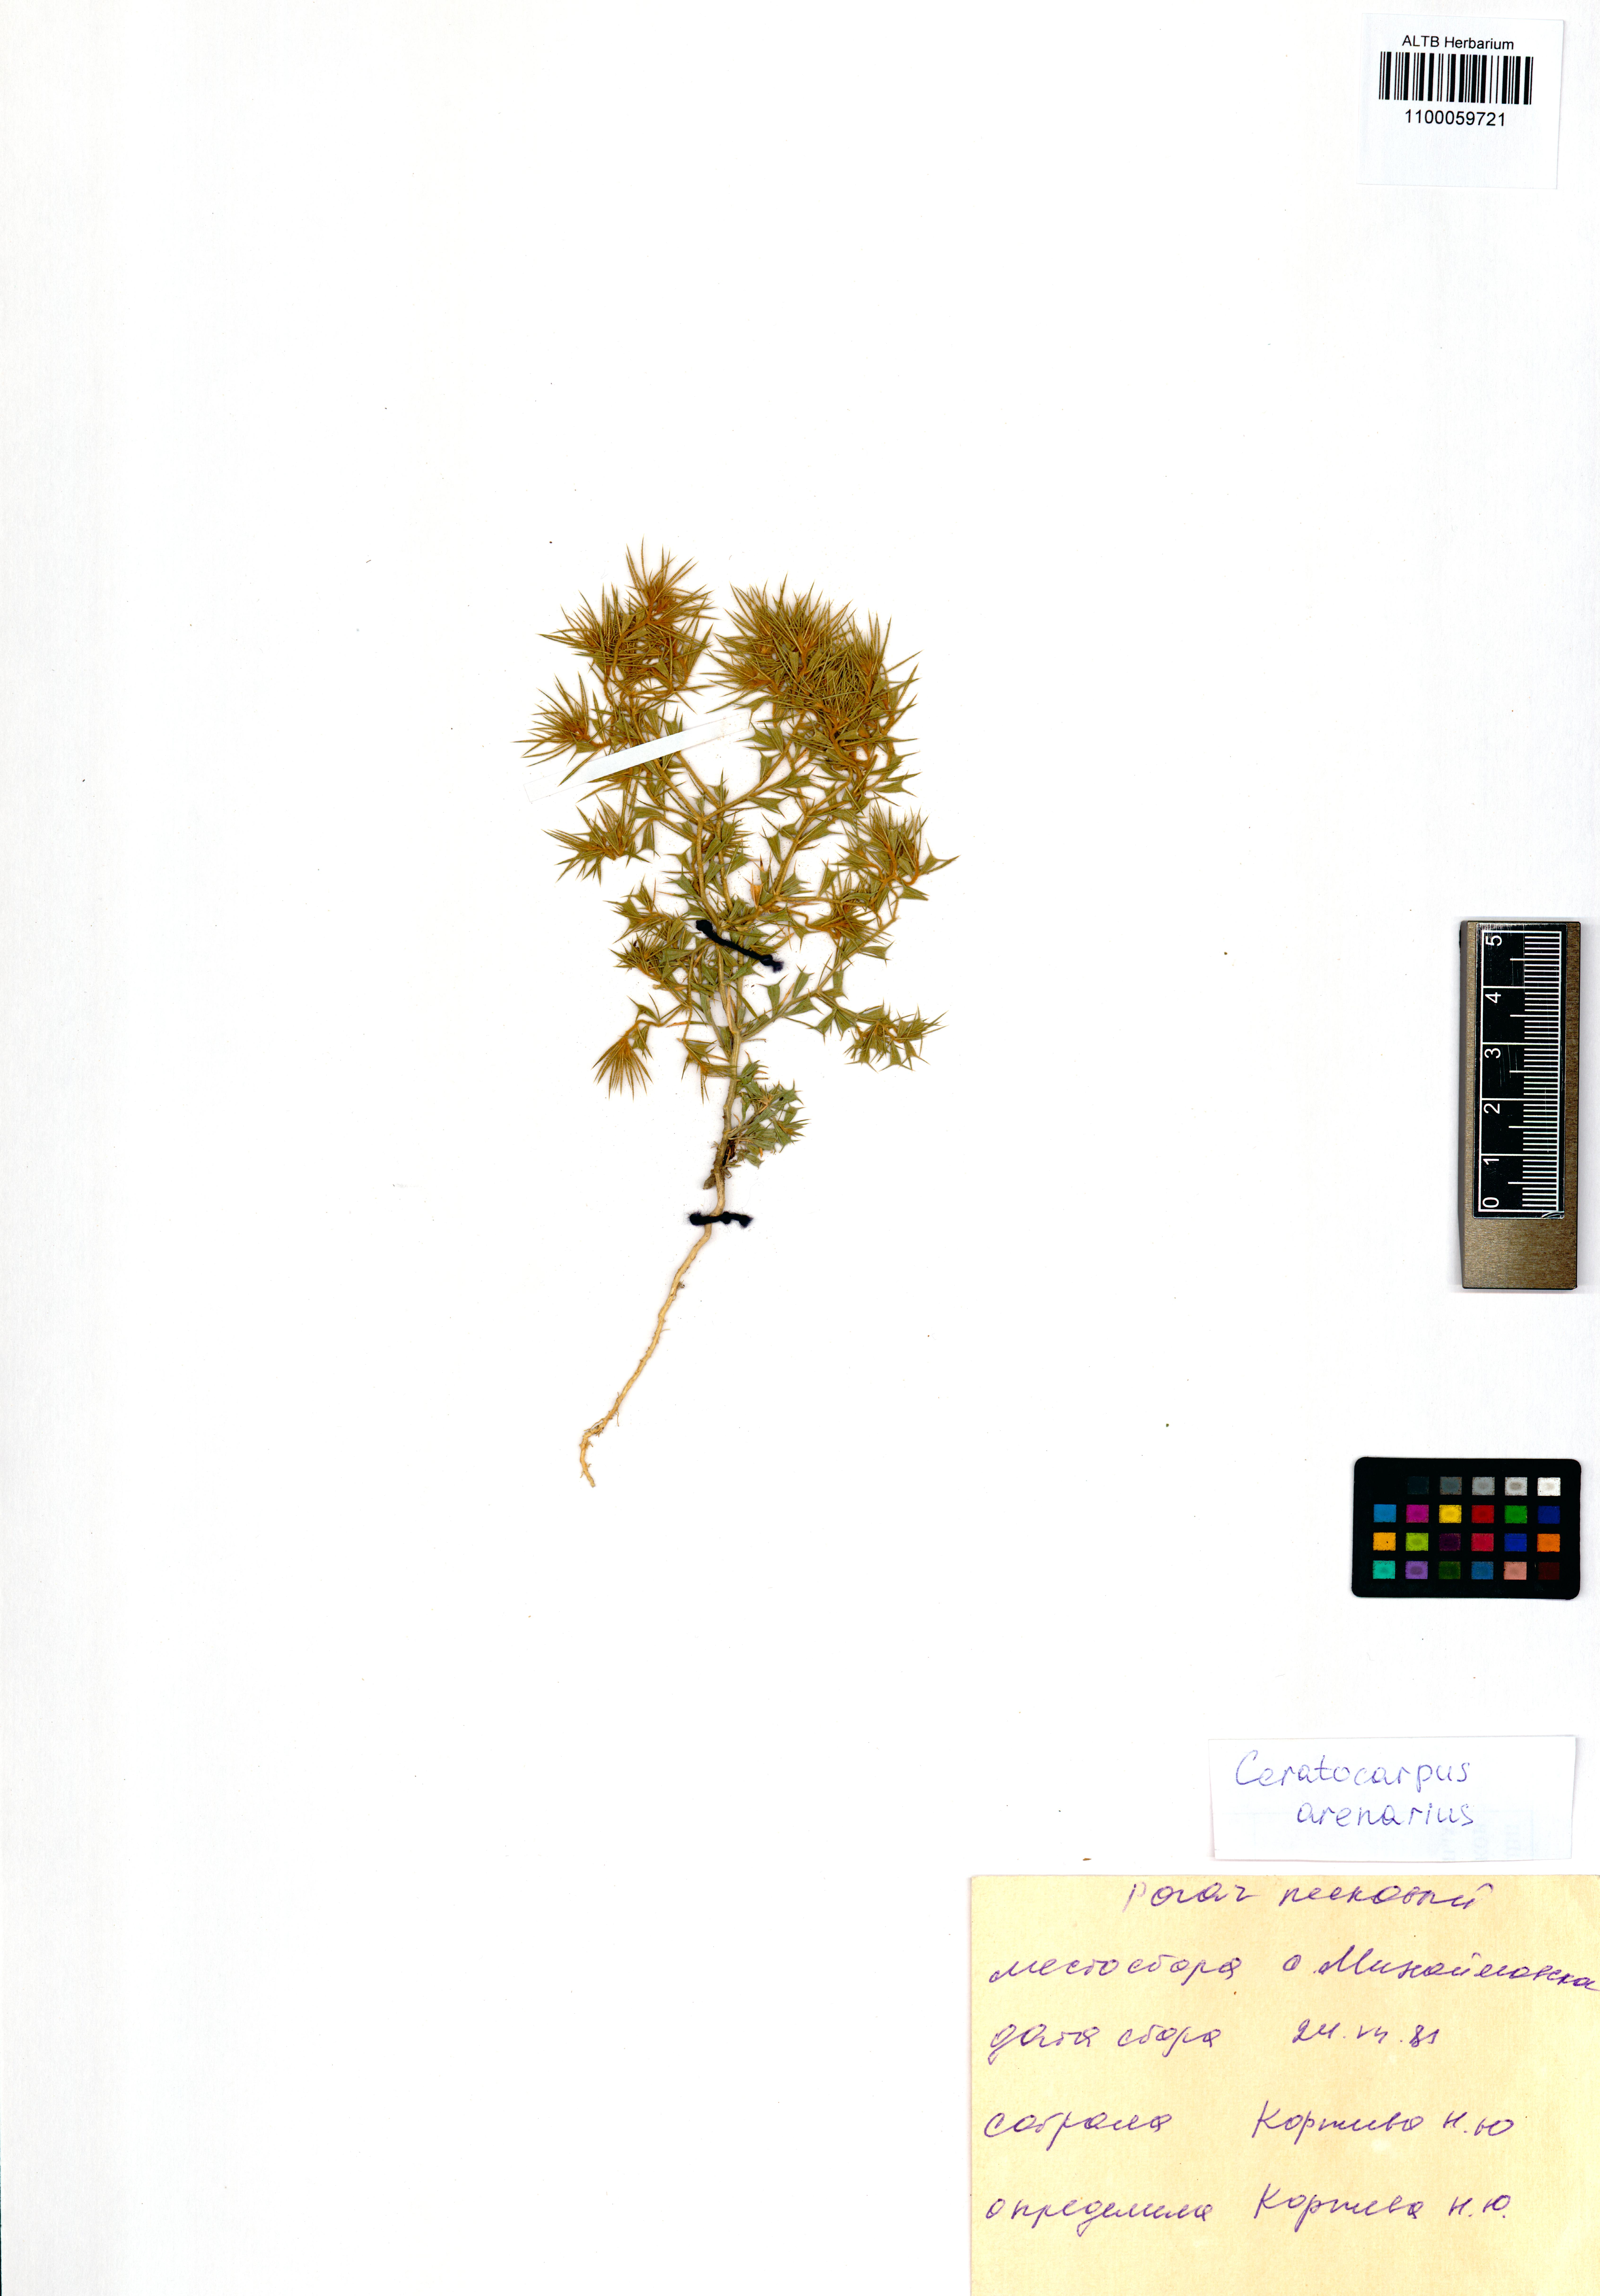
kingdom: Plantae
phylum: Tracheophyta
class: Magnoliopsida
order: Caryophyllales
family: Amaranthaceae
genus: Ceratocarpus
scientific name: Ceratocarpus arenarius
